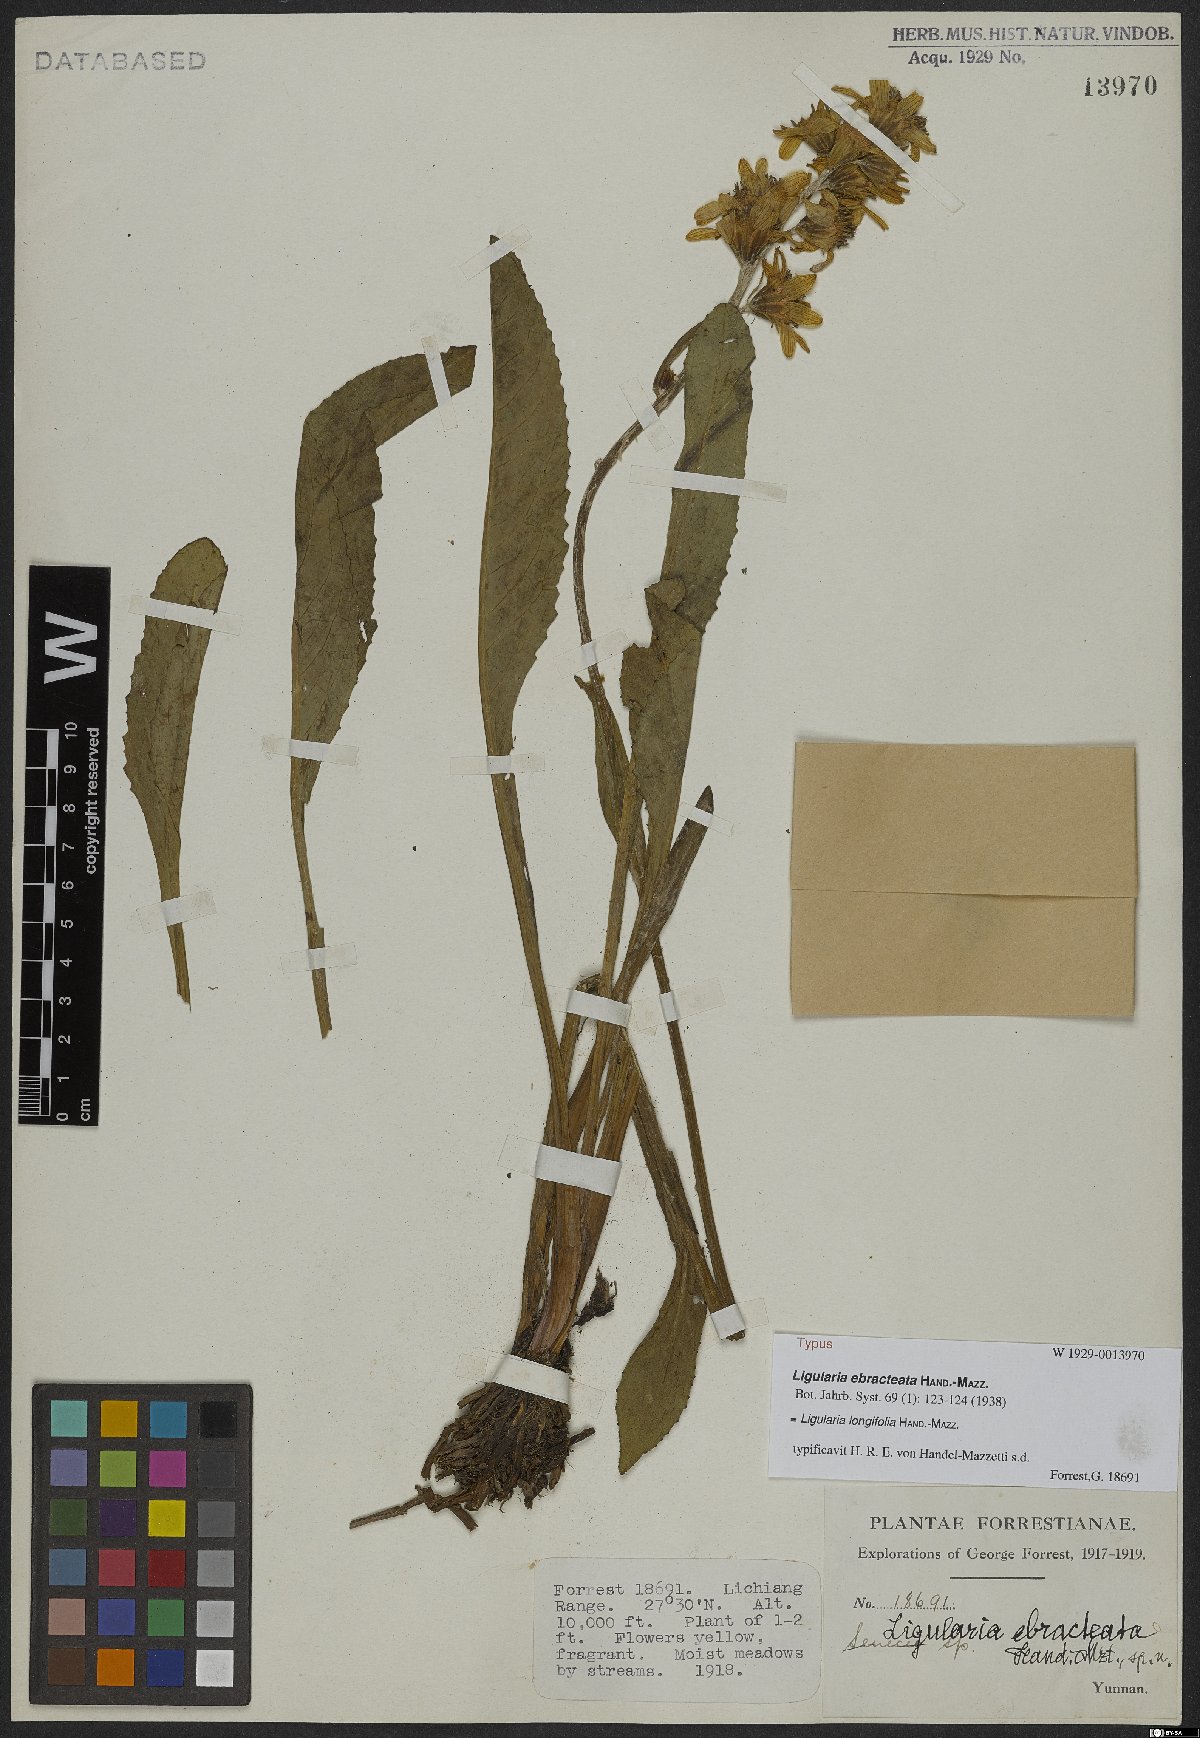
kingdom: Plantae
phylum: Tracheophyta
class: Magnoliopsida
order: Asterales
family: Asteraceae
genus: Ligularia
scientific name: Ligularia longifolia
